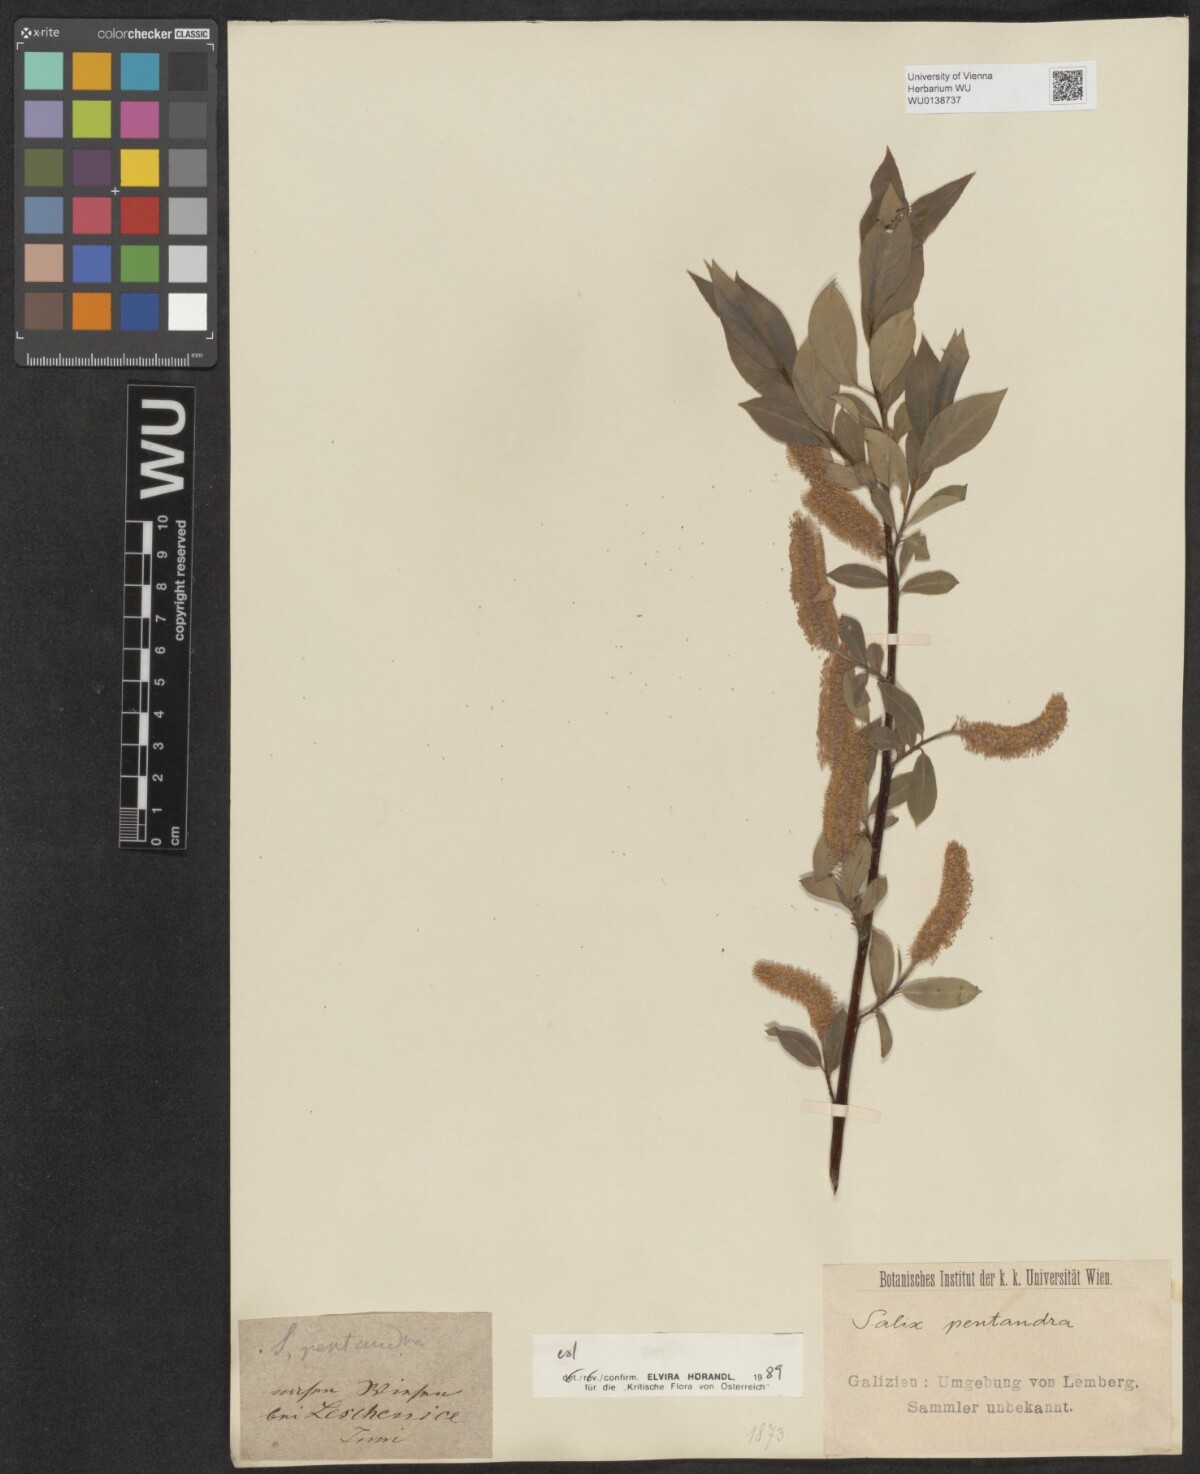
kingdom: Plantae
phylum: Tracheophyta
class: Magnoliopsida
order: Malpighiales
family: Salicaceae
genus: Salix
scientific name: Salix pentandra
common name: Bay willow
